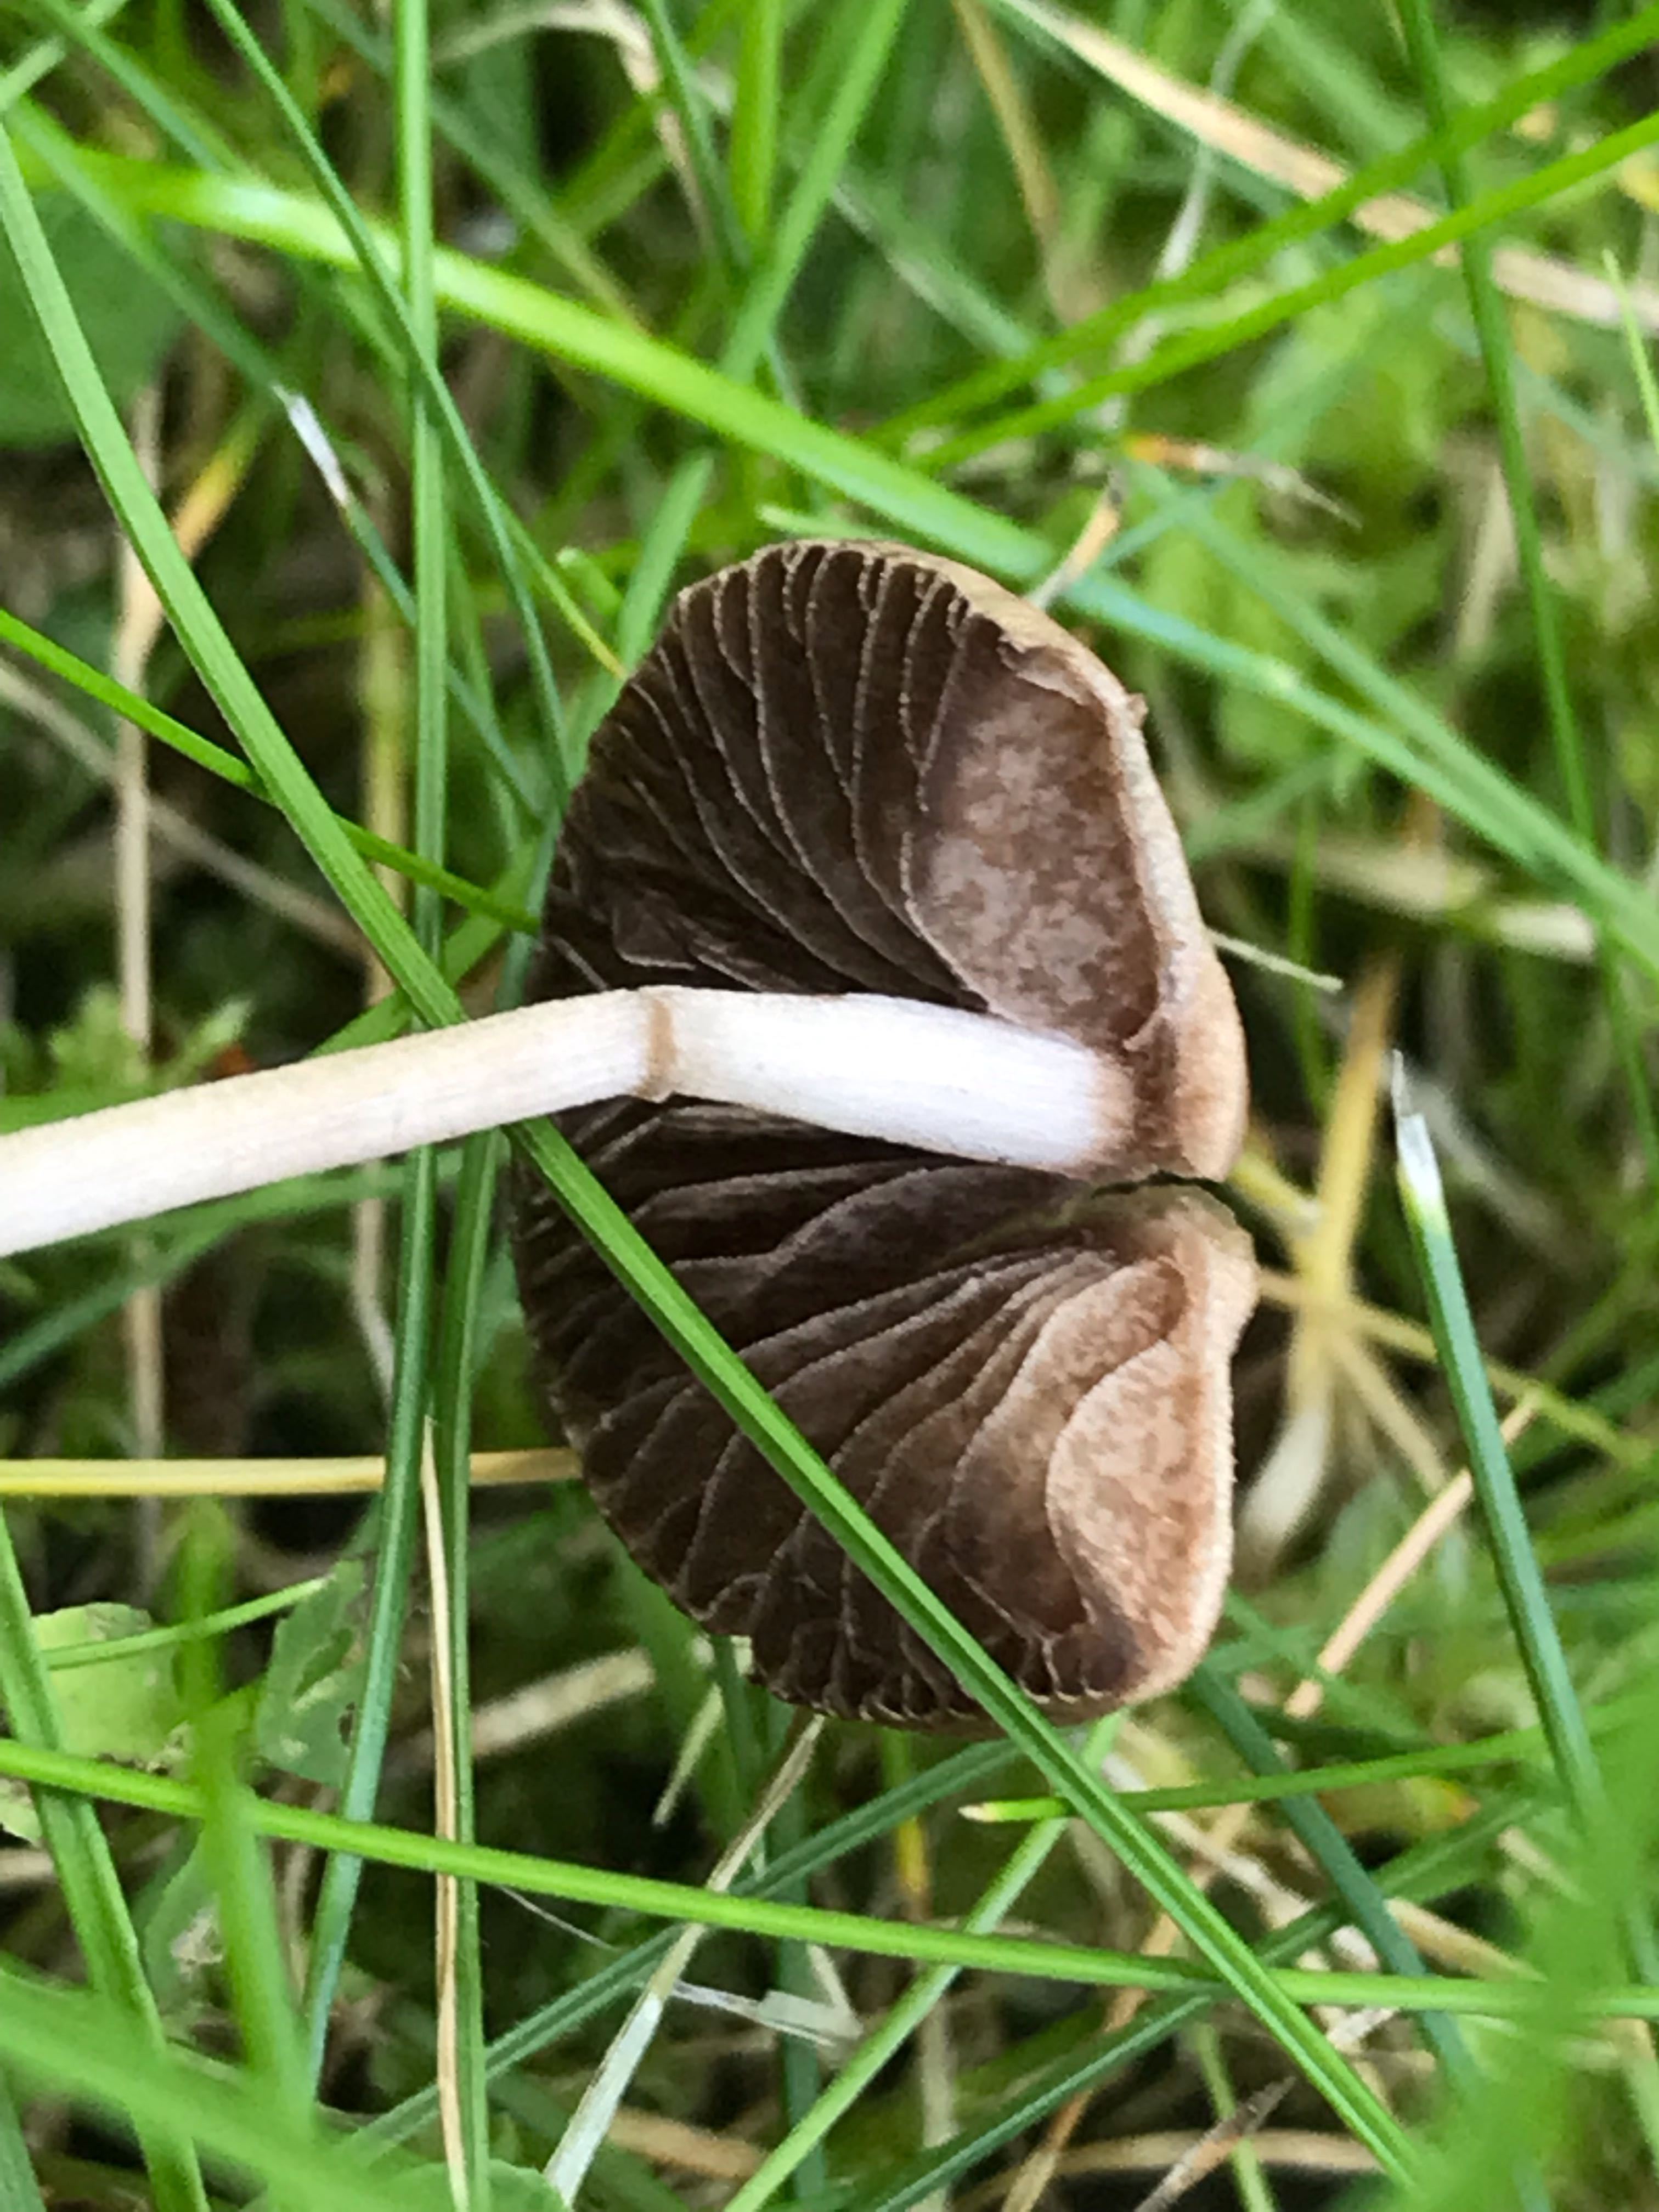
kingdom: Fungi
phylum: Basidiomycota
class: Agaricomycetes
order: Agaricales
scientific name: Agaricales
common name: champignonordenen
